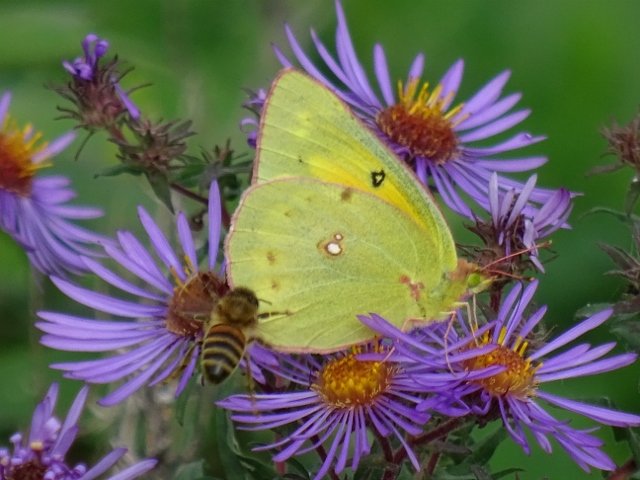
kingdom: Animalia
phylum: Arthropoda
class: Insecta
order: Lepidoptera
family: Pieridae
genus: Colias
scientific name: Colias eurytheme
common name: Orange Sulphur
